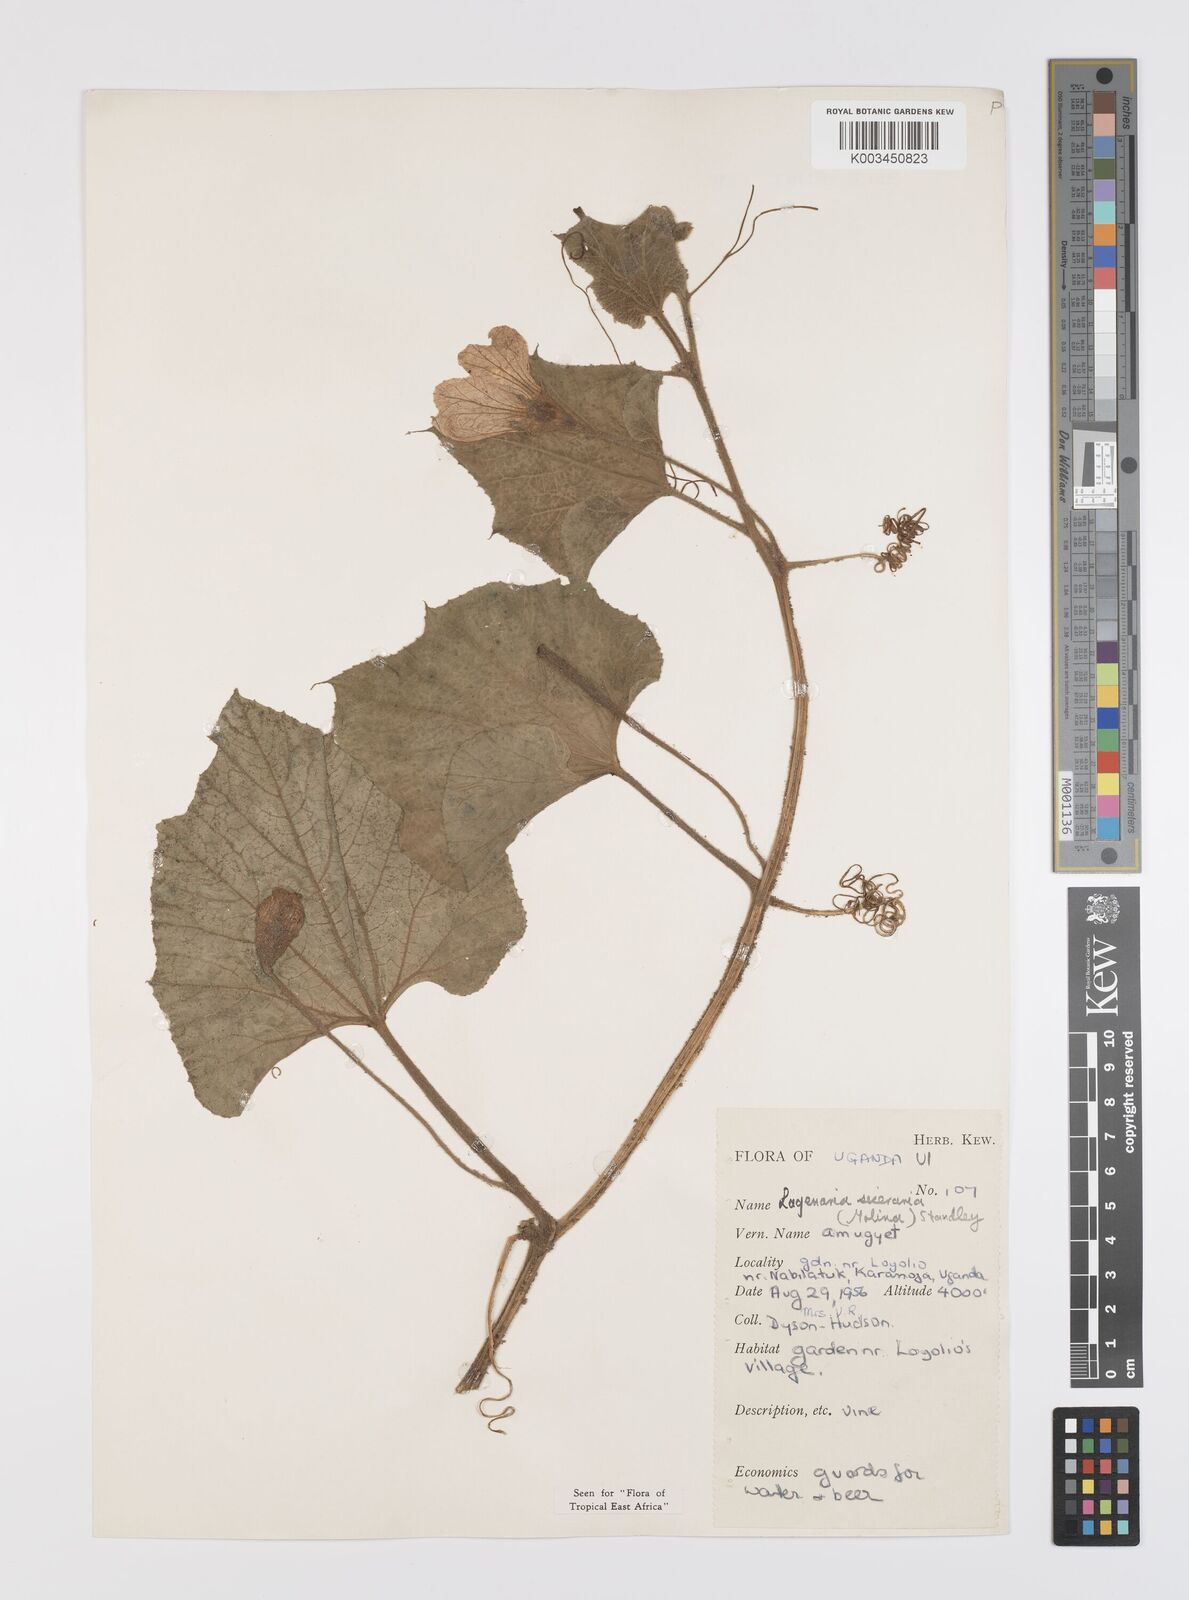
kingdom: Plantae
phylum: Tracheophyta
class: Magnoliopsida
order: Cucurbitales
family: Cucurbitaceae
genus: Lagenaria
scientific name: Lagenaria siceraria
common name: Bottle gourd
